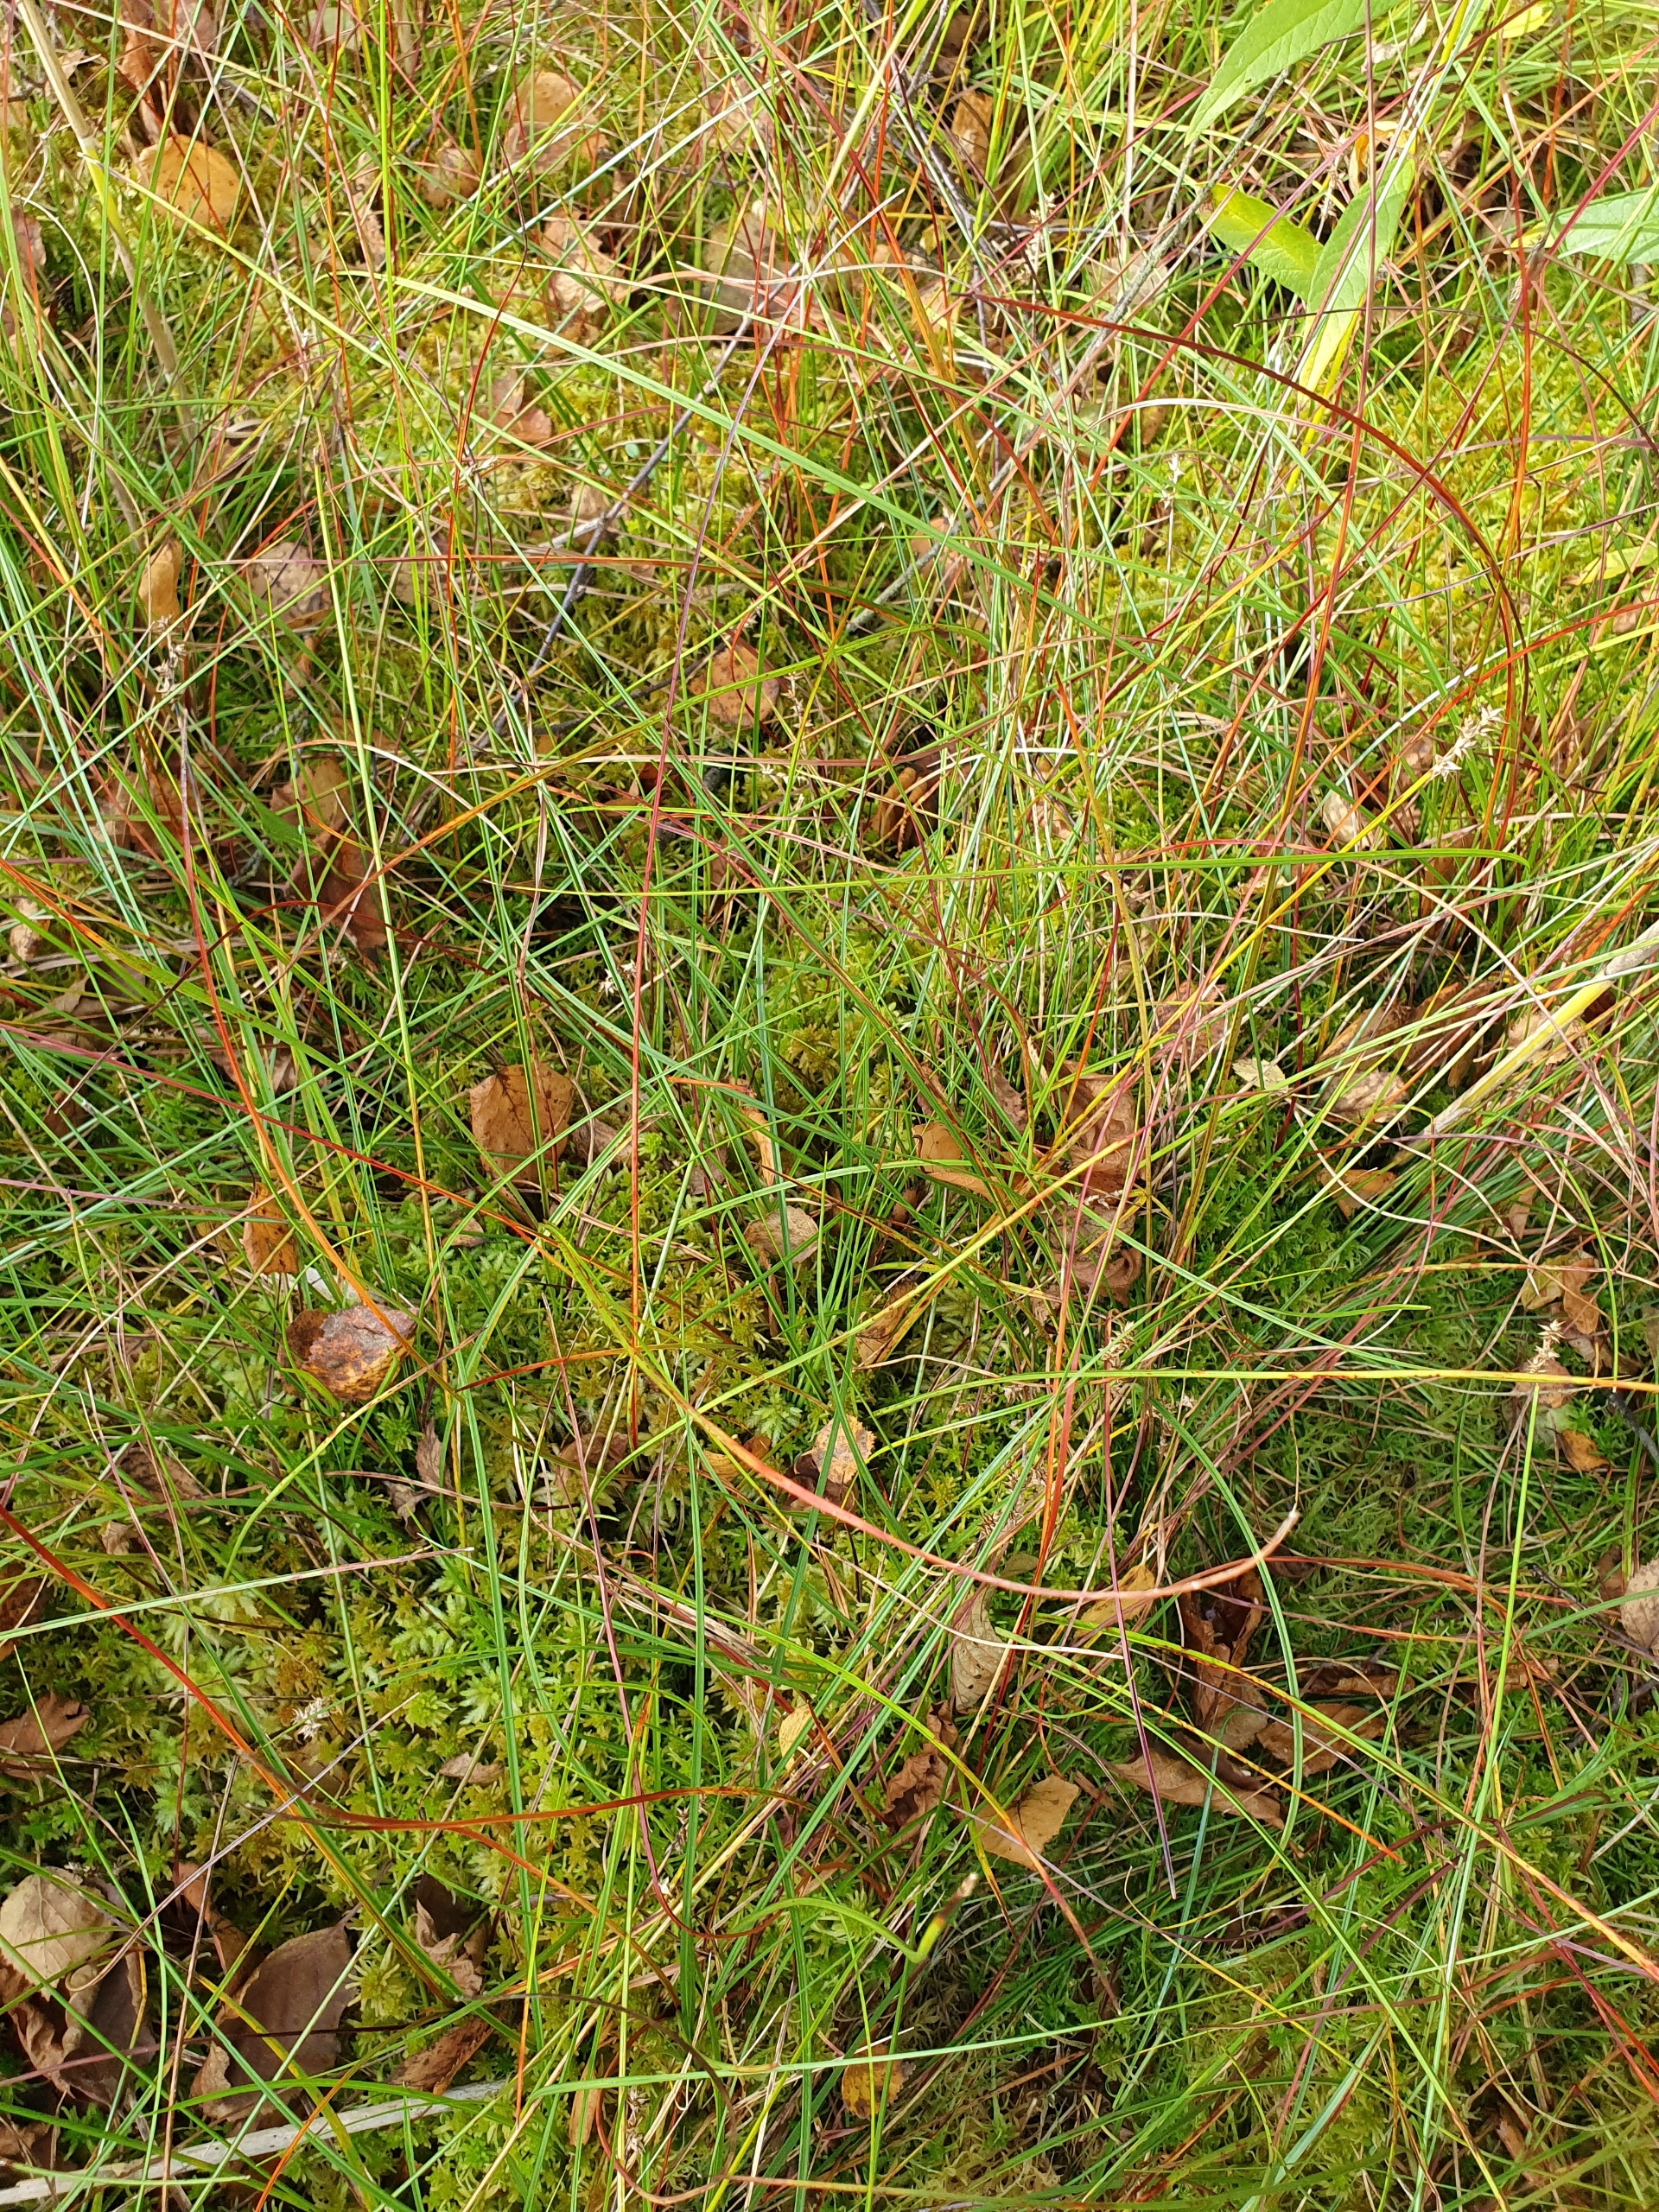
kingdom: Plantae
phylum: Tracheophyta
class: Liliopsida
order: Poales
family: Cyperaceae
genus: Carex
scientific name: Carex echinata
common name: Stjerne-star
